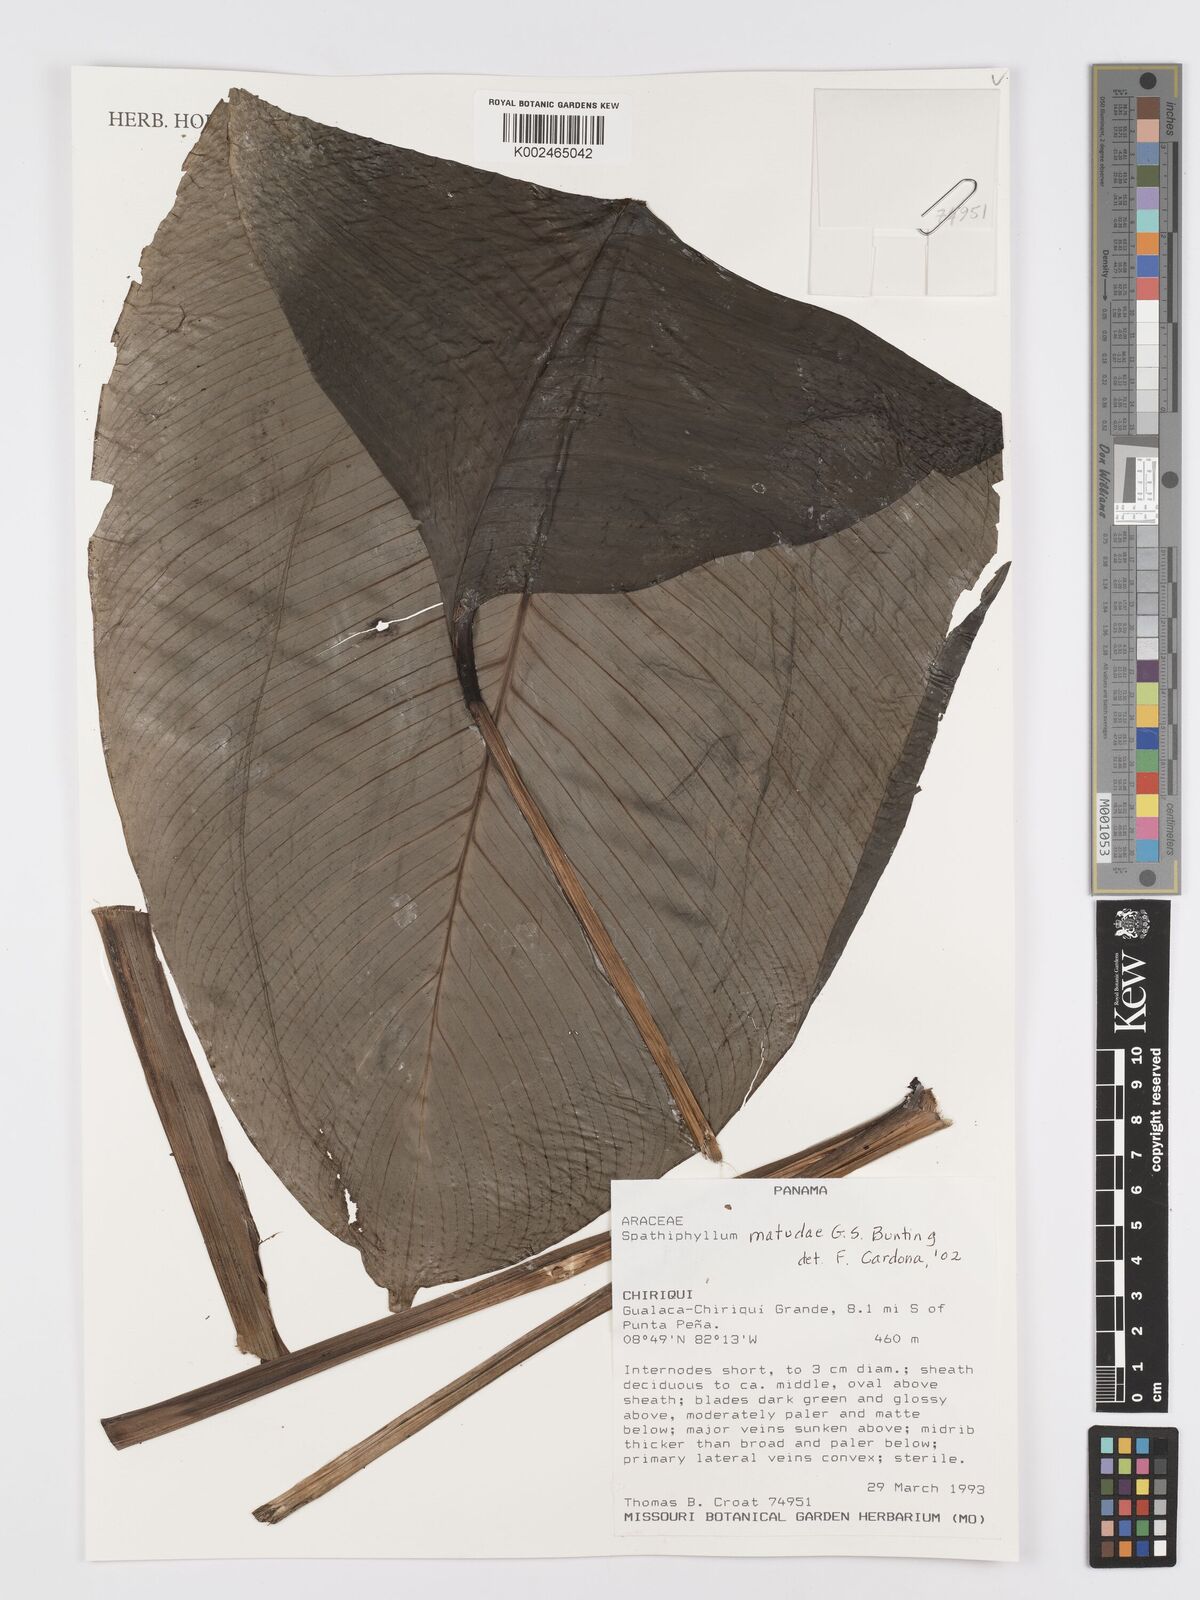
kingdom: Plantae
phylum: Tracheophyta
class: Liliopsida
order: Alismatales
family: Araceae
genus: Spathiphyllum
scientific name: Spathiphyllum montanum
